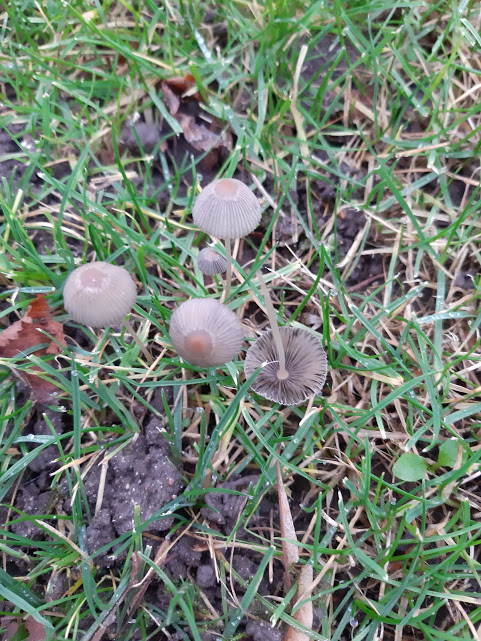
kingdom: Fungi
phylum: Basidiomycota
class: Agaricomycetes
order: Agaricales
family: Psathyrellaceae
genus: Parasola
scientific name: Parasola
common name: hjulhat
